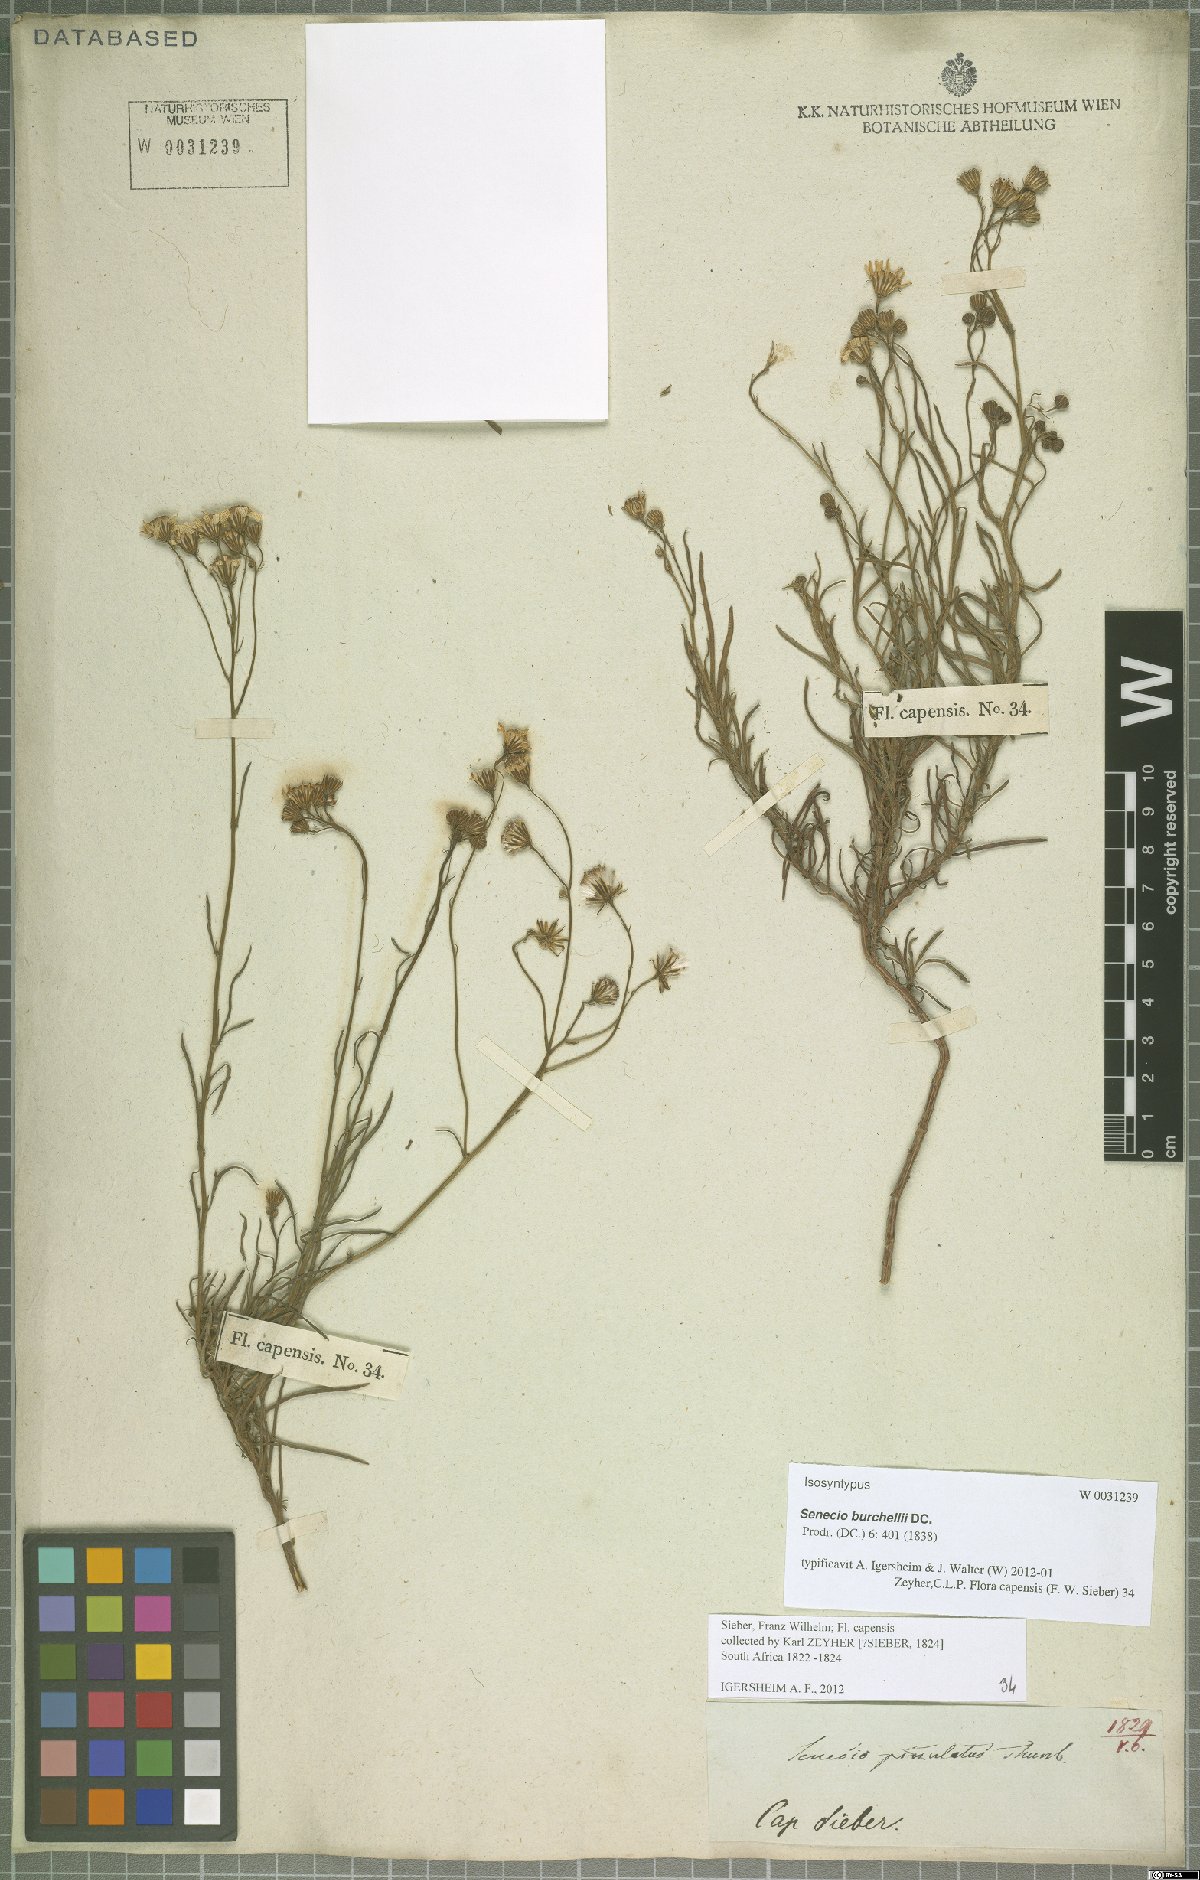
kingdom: Plantae
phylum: Tracheophyta
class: Magnoliopsida
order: Asterales
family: Asteraceae
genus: Senecio
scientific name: Senecio burchellii
